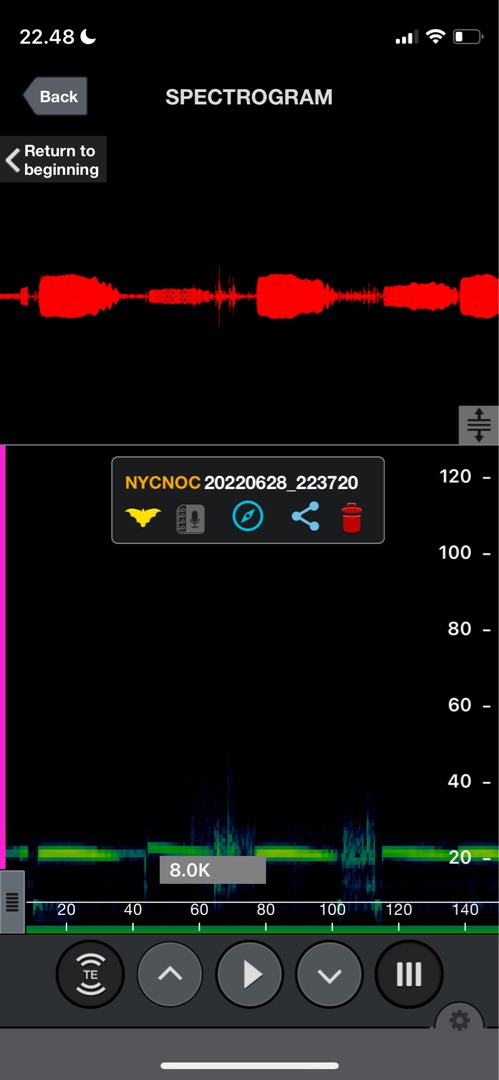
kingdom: Animalia
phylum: Chordata
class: Mammalia
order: Chiroptera
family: Vespertilionidae
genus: Nyctalus
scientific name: Nyctalus noctula
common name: Brunflagermus
